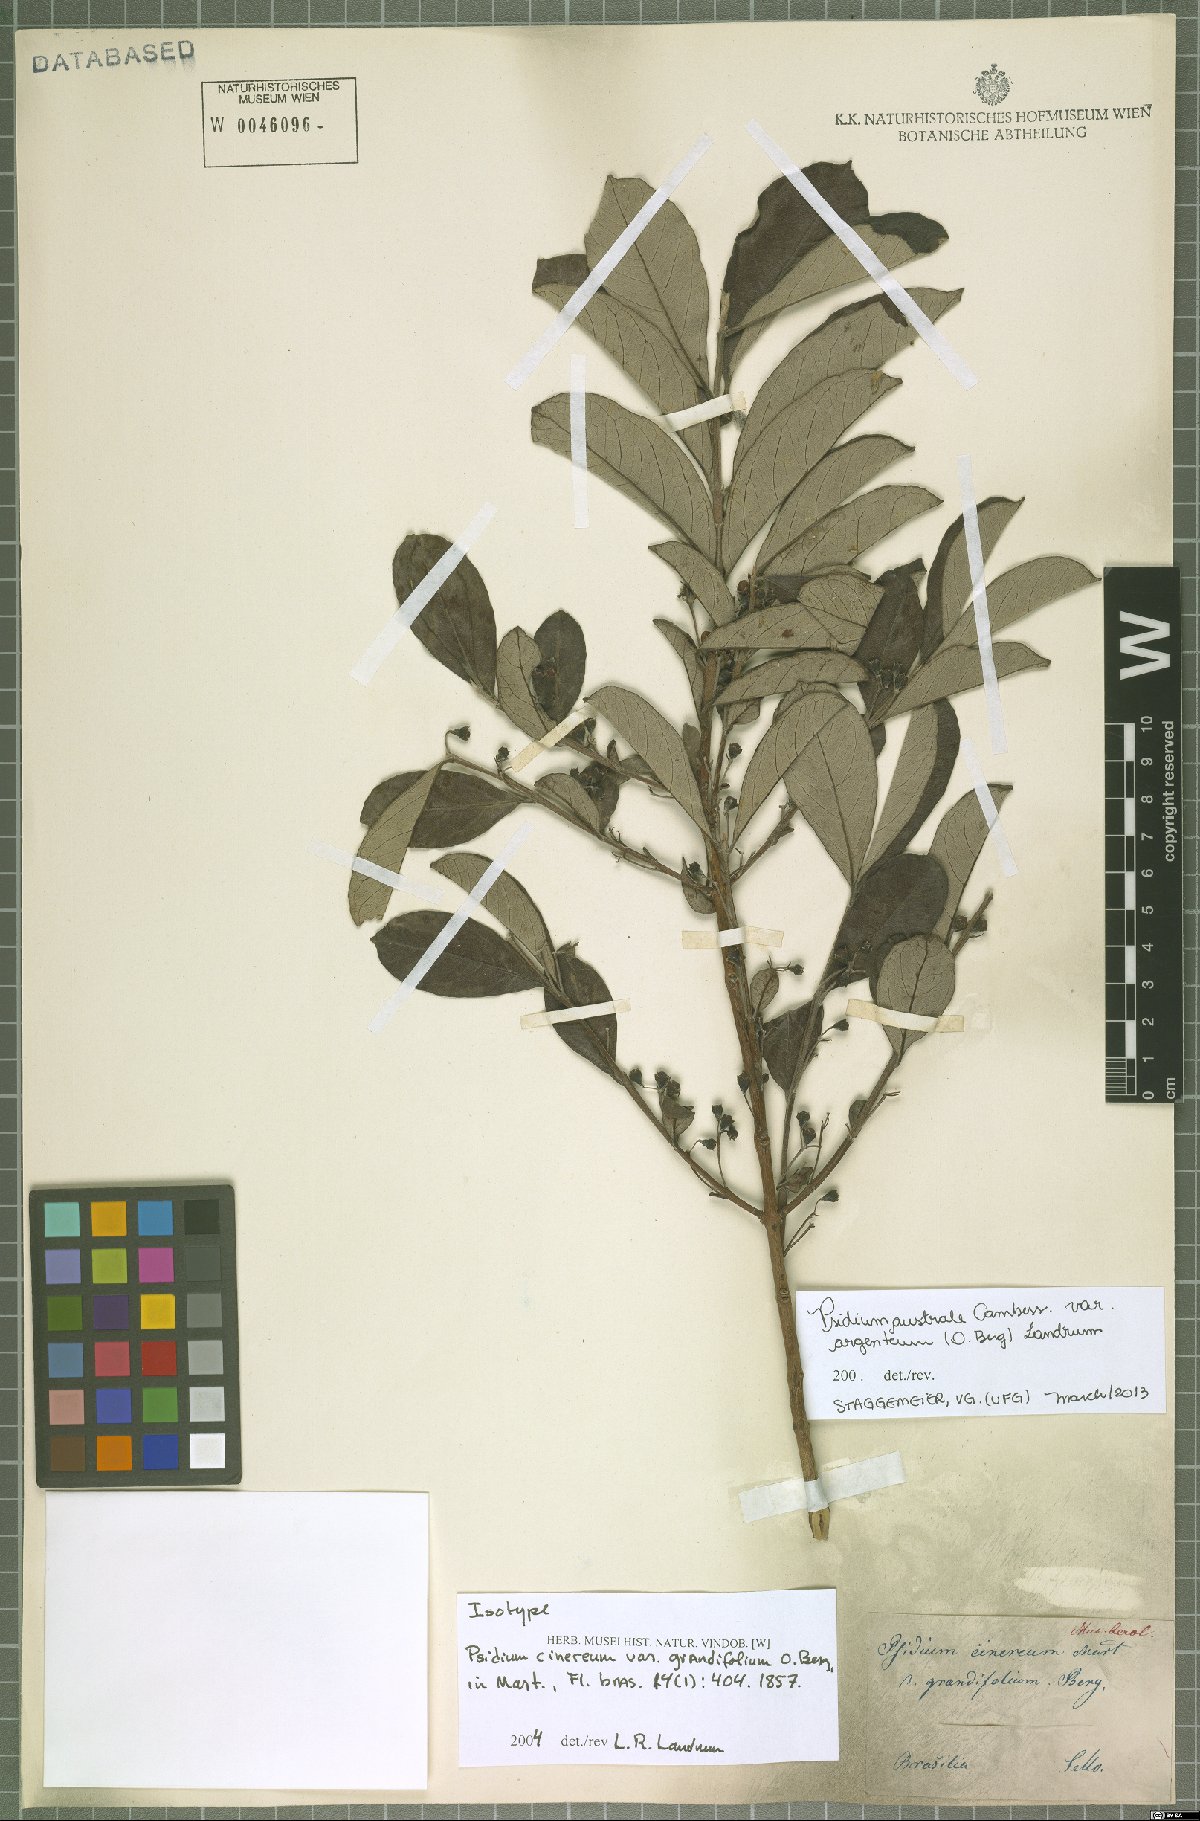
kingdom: Plantae
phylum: Tracheophyta
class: Magnoliopsida
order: Myrtales
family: Myrtaceae
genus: Psidium
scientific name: Psidium australe
